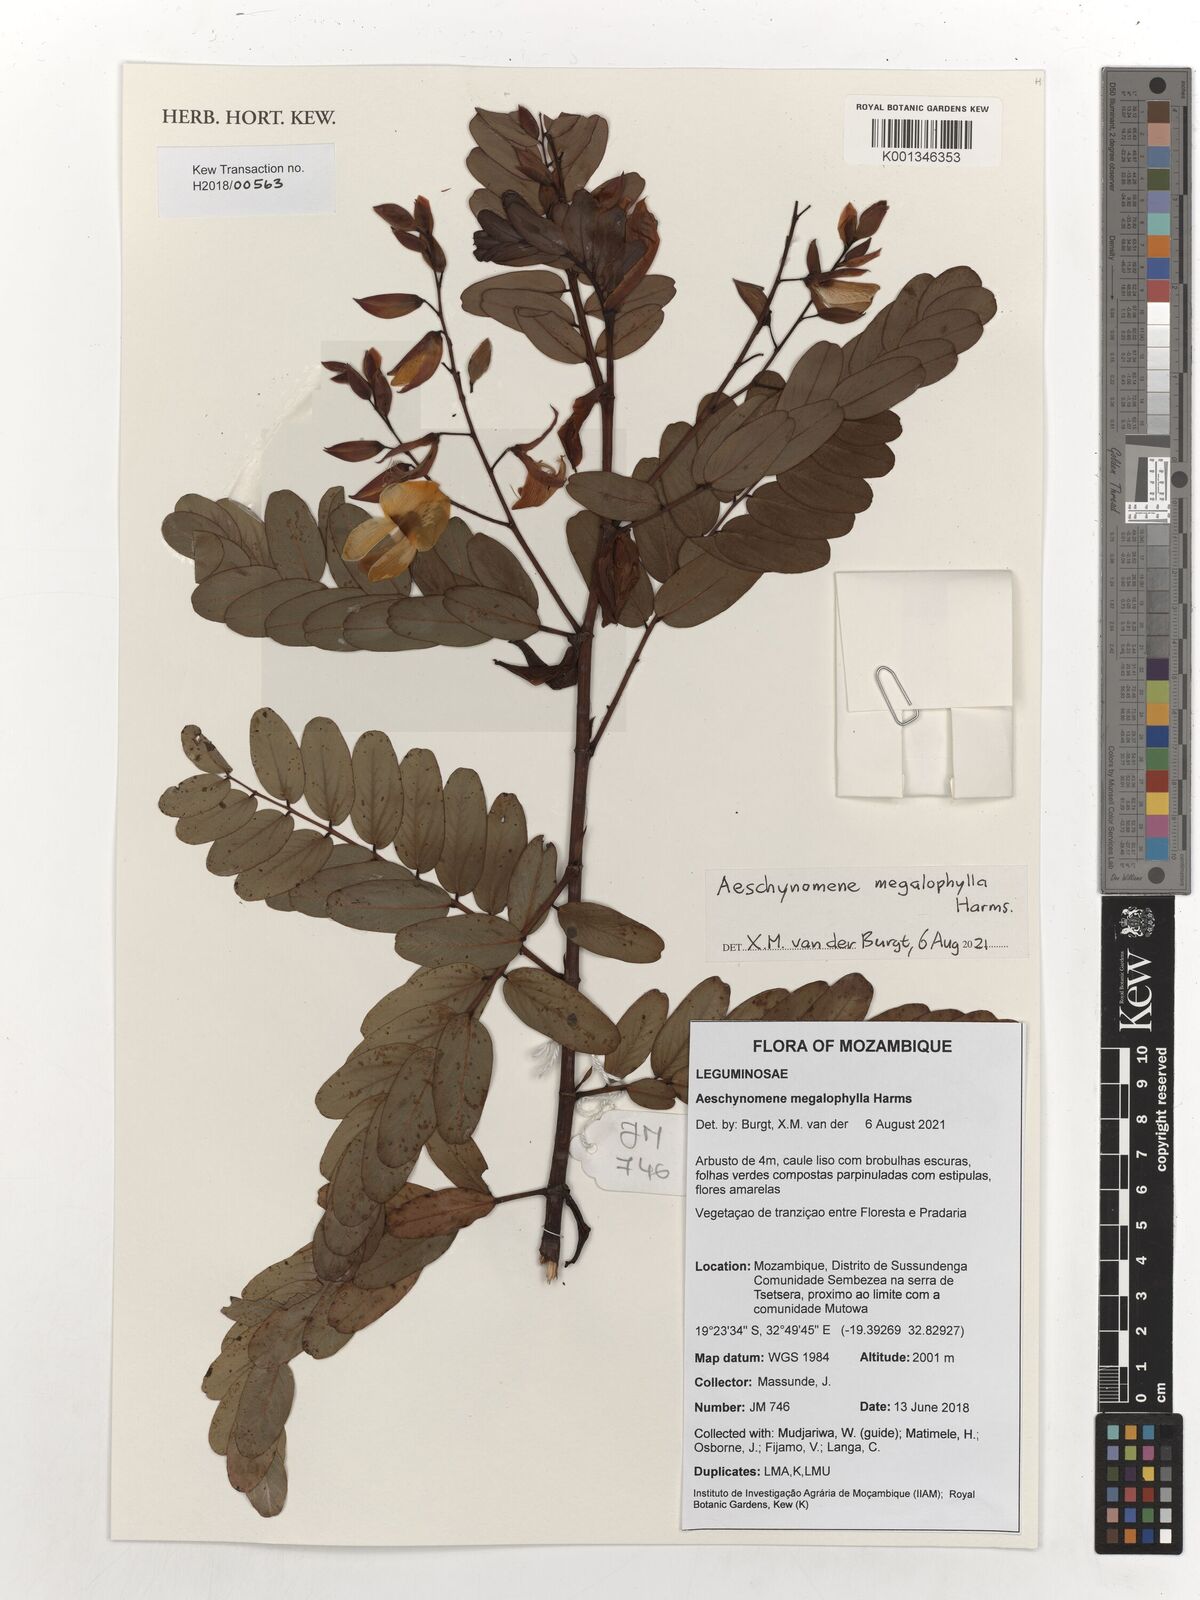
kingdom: Plantae
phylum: Tracheophyta
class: Magnoliopsida
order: Fabales
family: Fabaceae
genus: Aeschynomene
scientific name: Aeschynomene megalophylla
